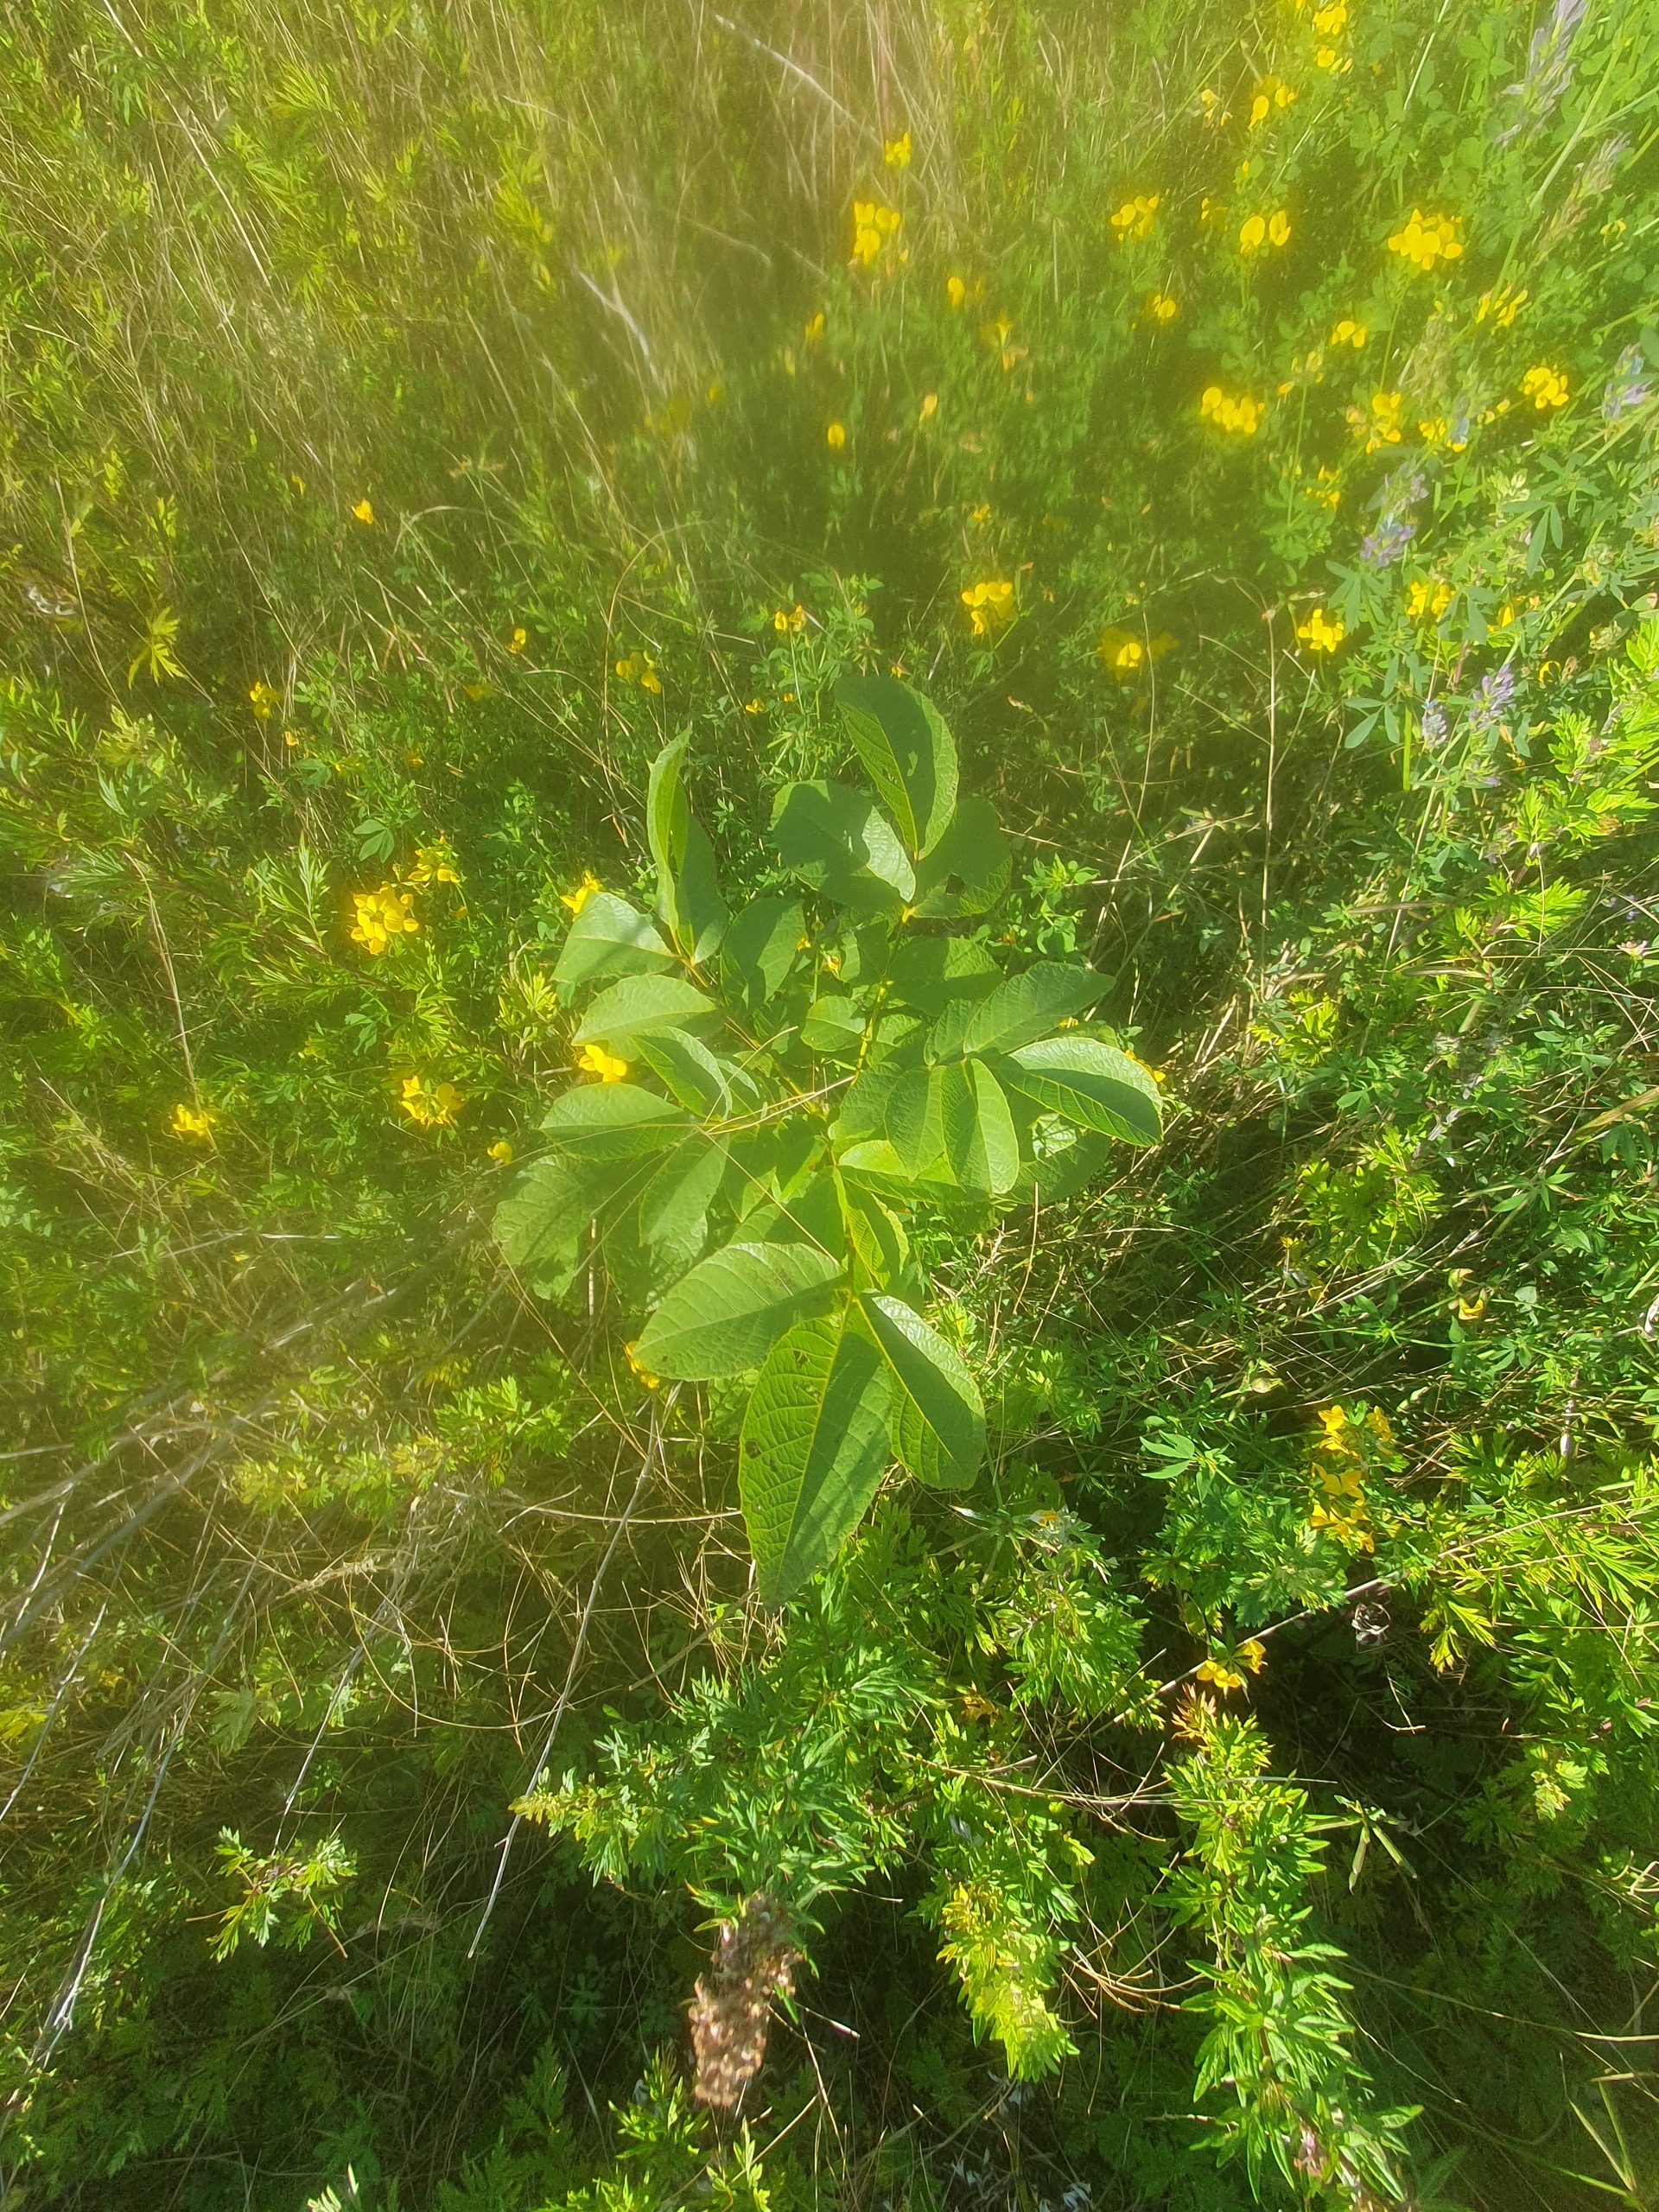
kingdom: Plantae
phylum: Tracheophyta
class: Magnoliopsida
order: Fagales
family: Juglandaceae
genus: Juglans
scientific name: Juglans regia
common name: Almindelig valnød
